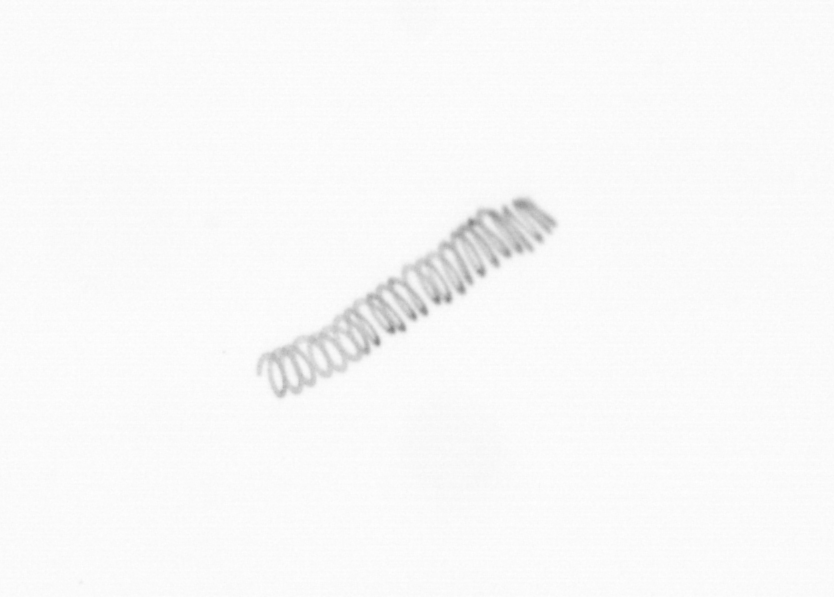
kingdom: Chromista
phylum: Ochrophyta
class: Bacillariophyceae
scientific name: Bacillariophyceae
